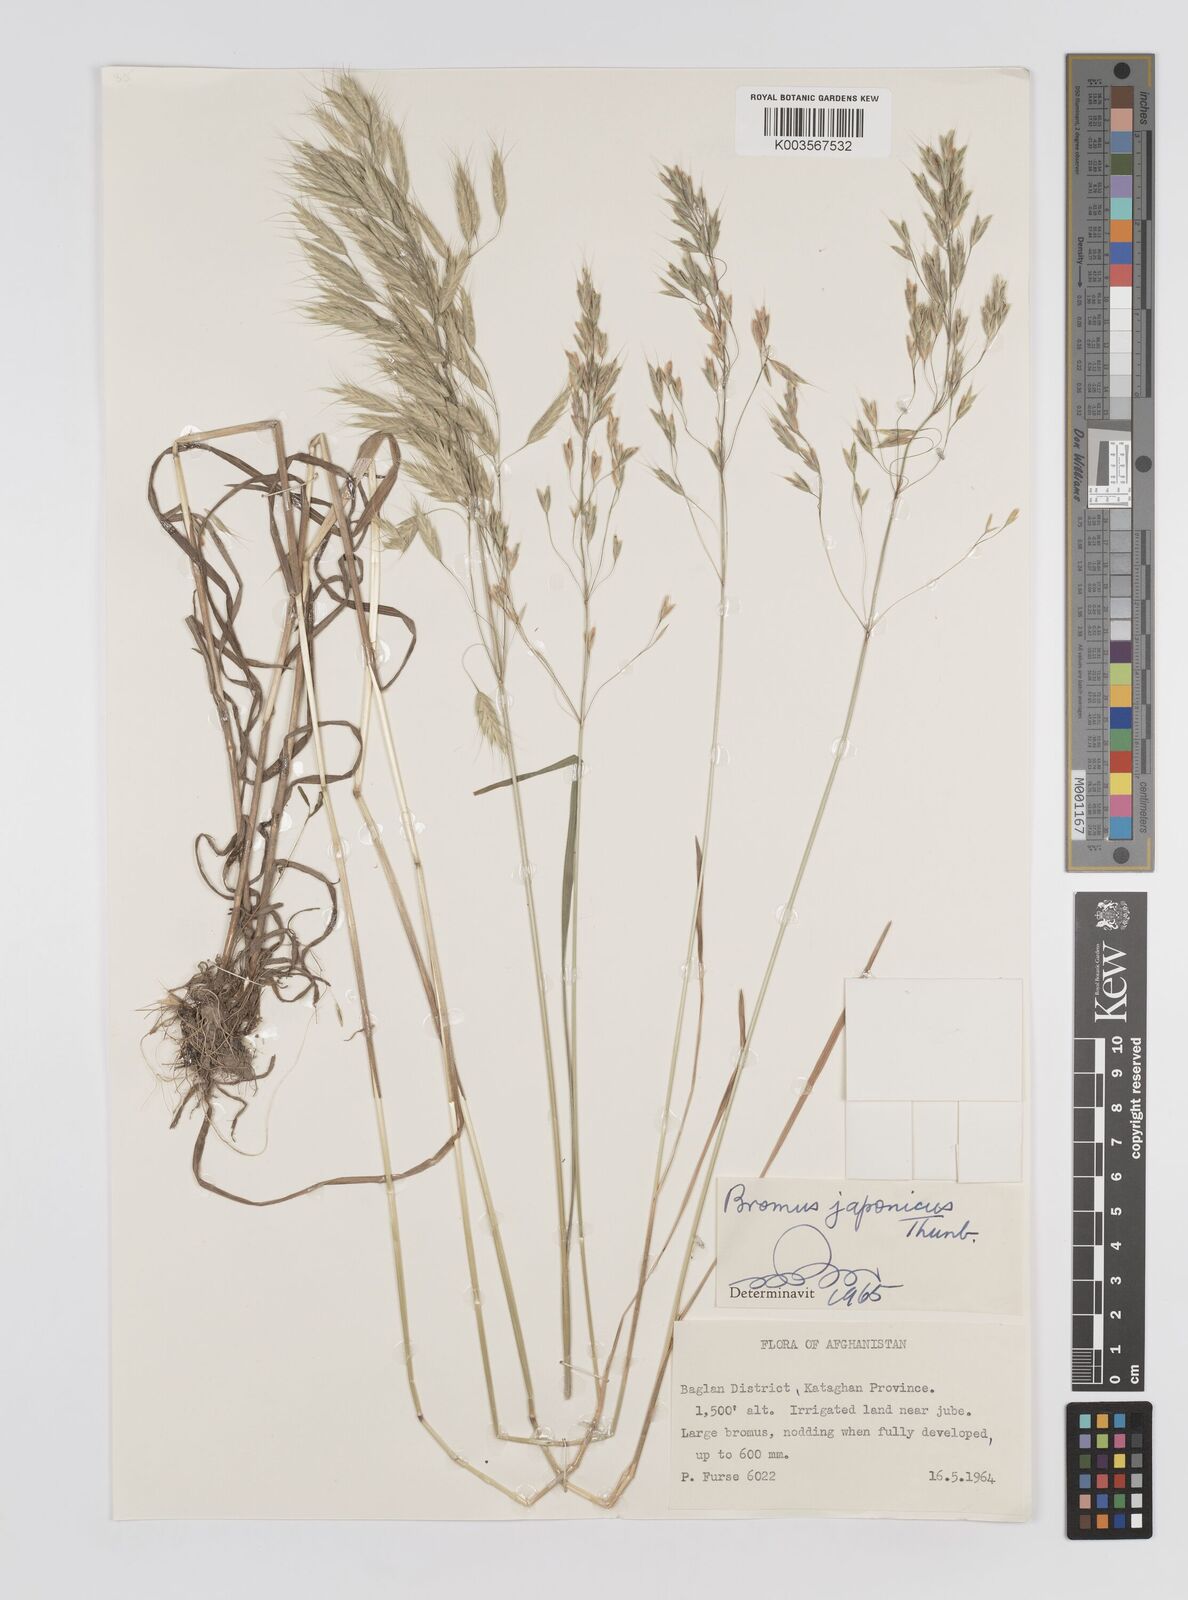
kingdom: Plantae
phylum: Tracheophyta
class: Liliopsida
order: Poales
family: Poaceae
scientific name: Poaceae
